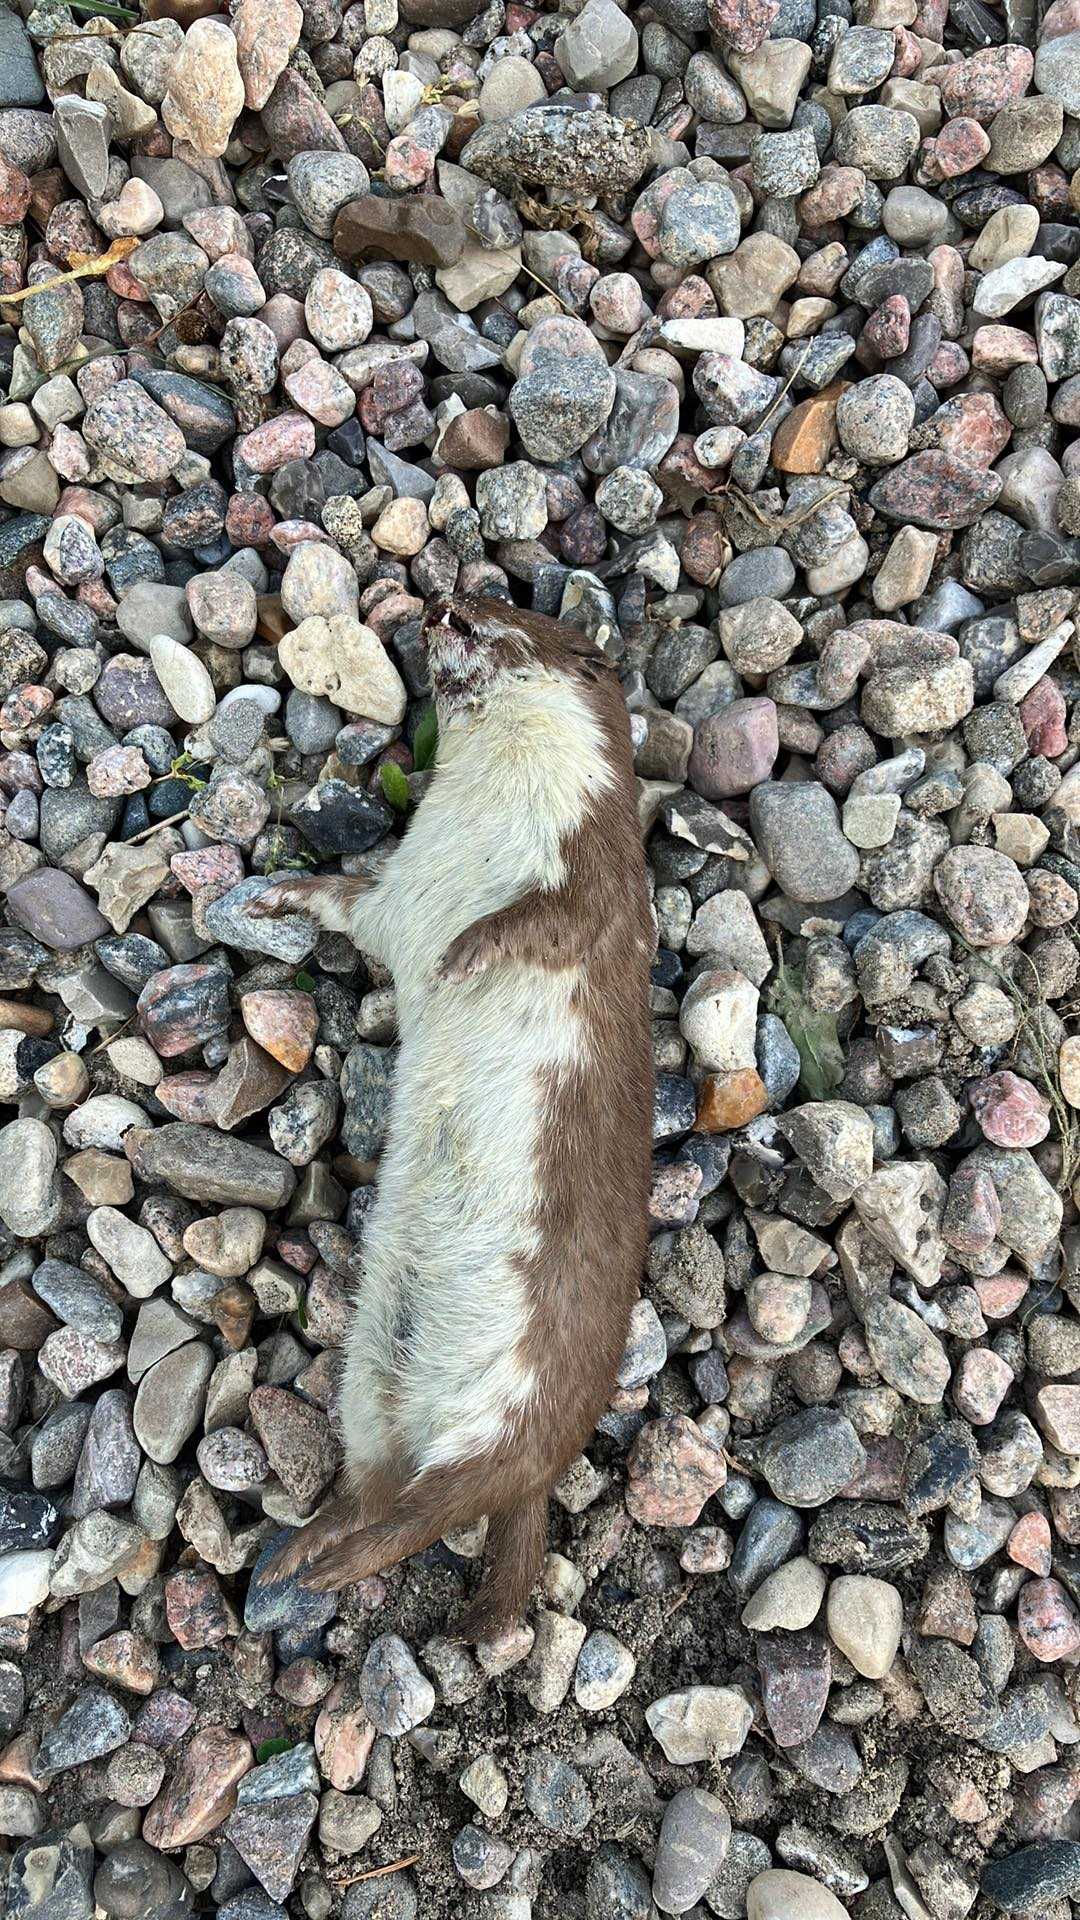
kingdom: Animalia
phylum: Chordata
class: Mammalia
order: Carnivora
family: Mustelidae
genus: Mustela
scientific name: Mustela nivalis
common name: Brud
